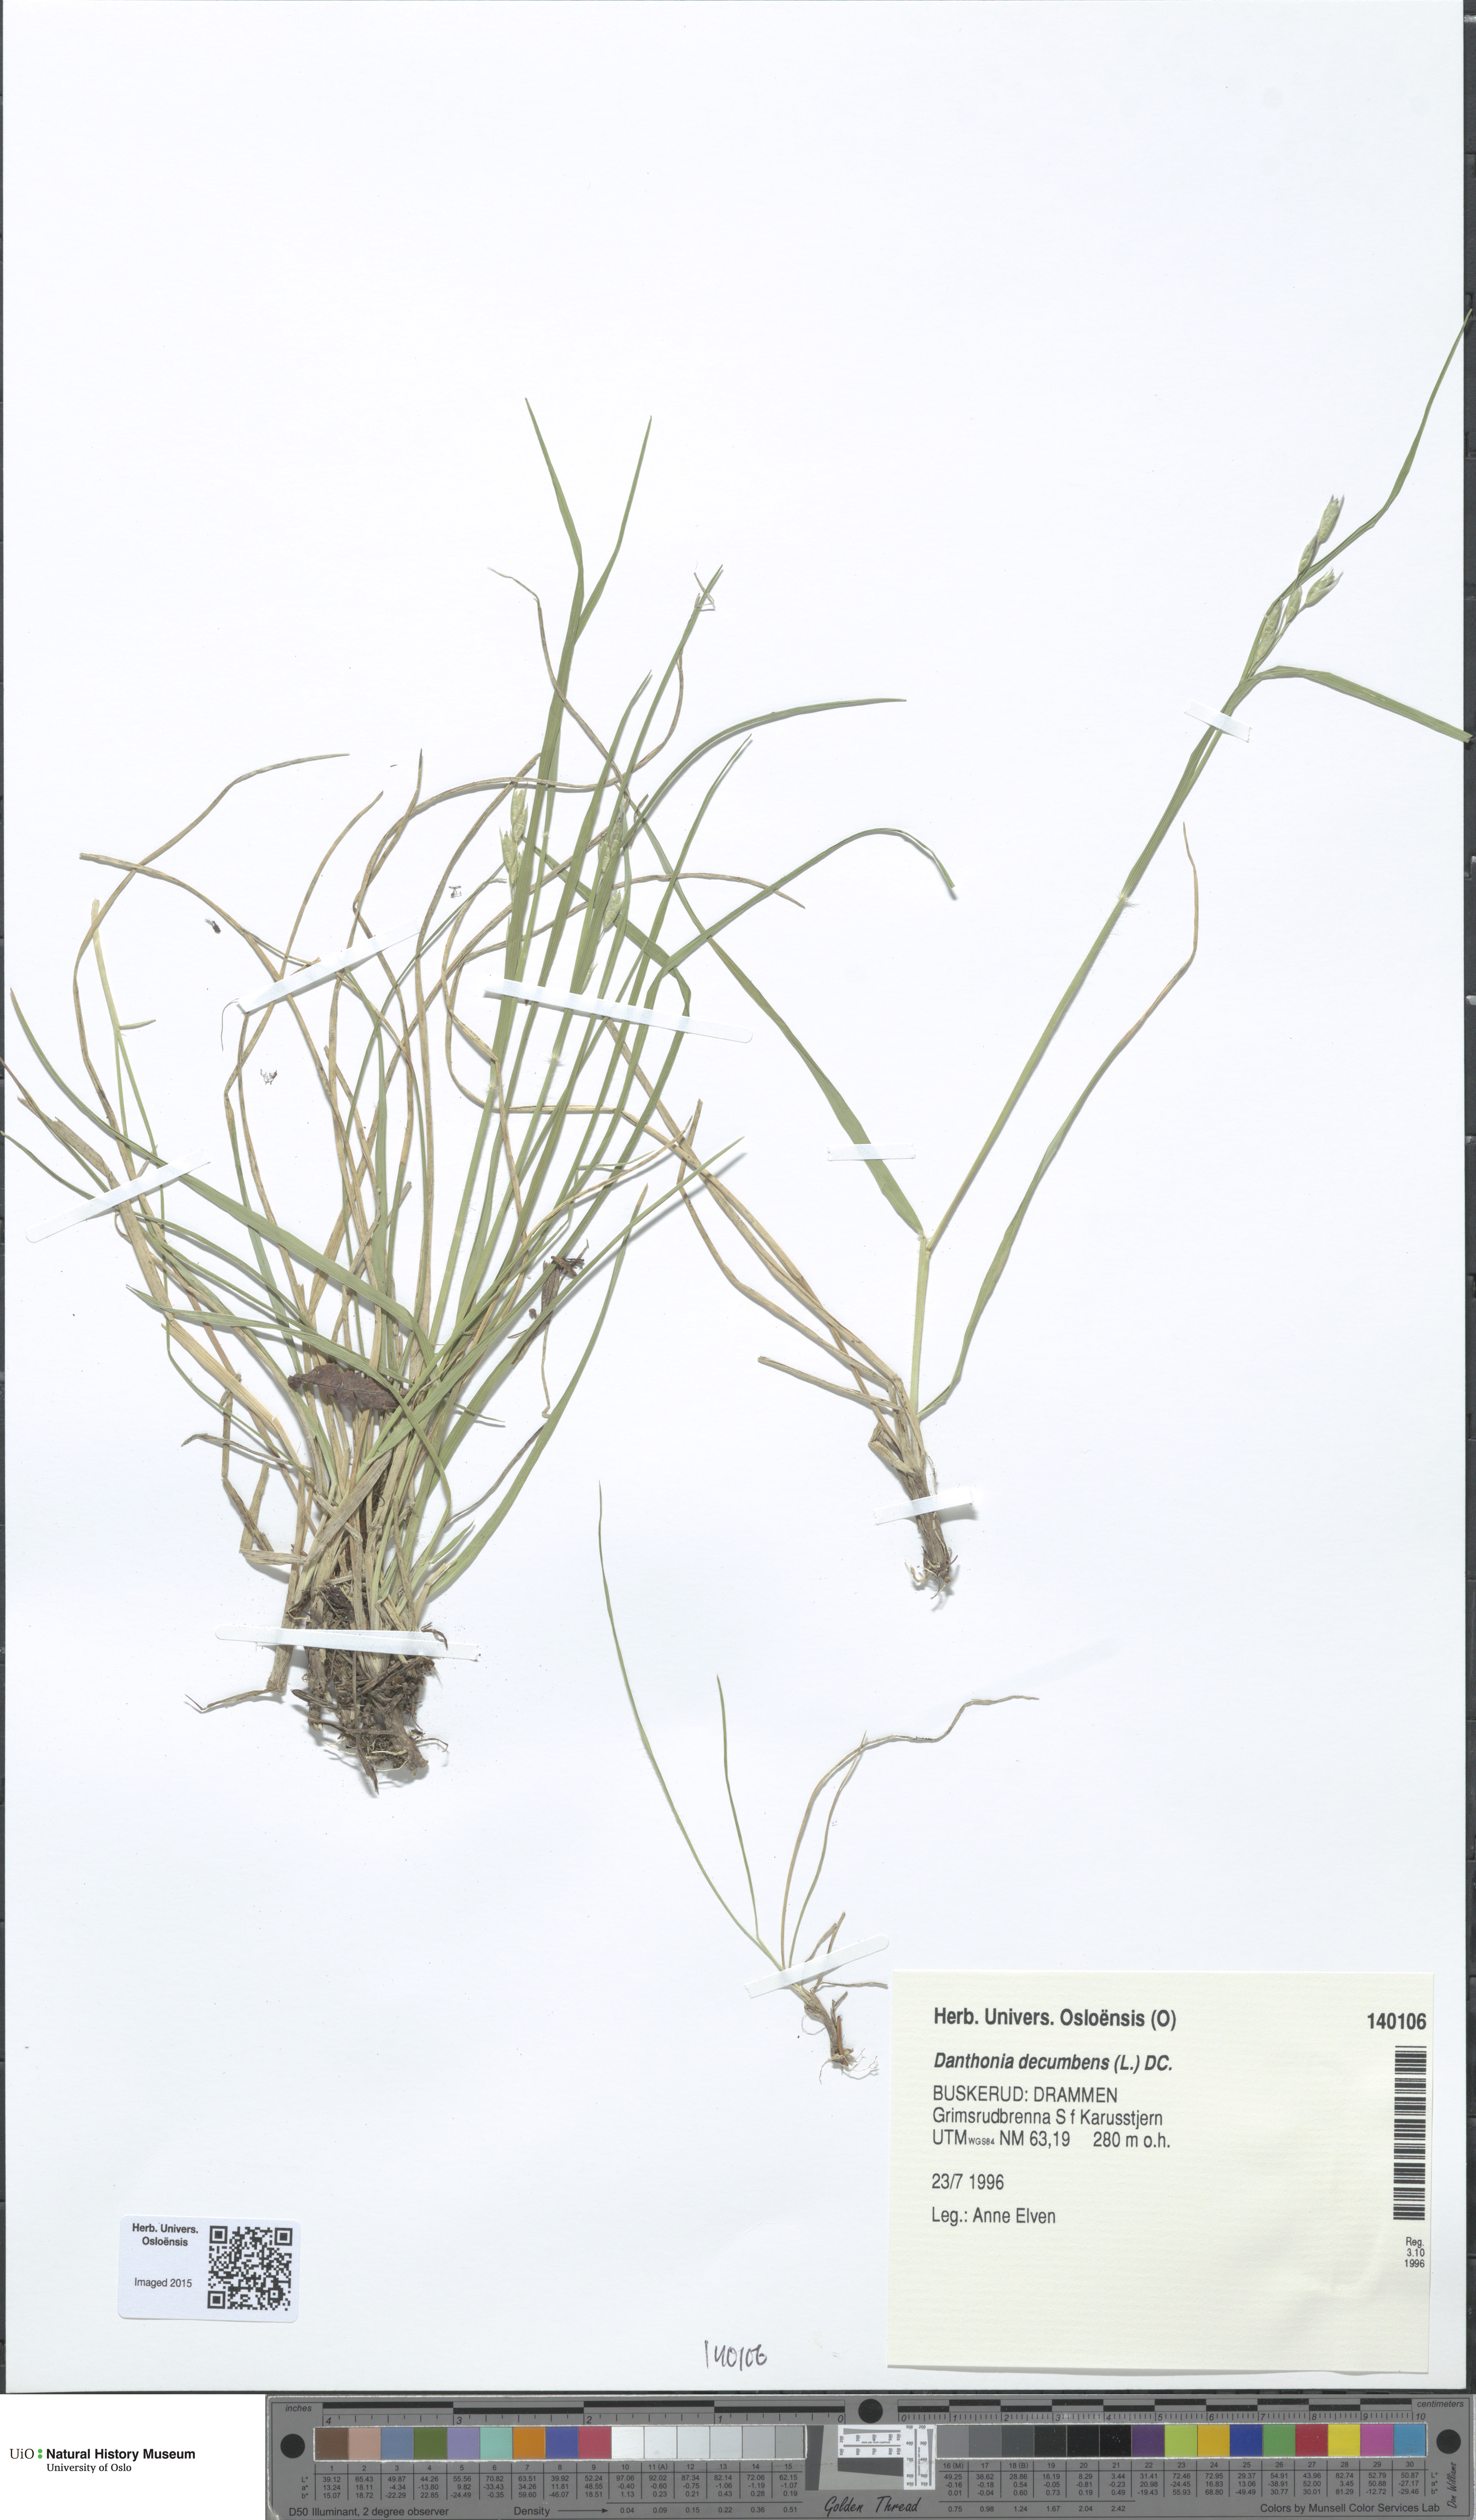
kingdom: Plantae
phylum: Tracheophyta
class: Liliopsida
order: Poales
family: Poaceae
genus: Danthonia
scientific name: Danthonia decumbens
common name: Common heathgrass
